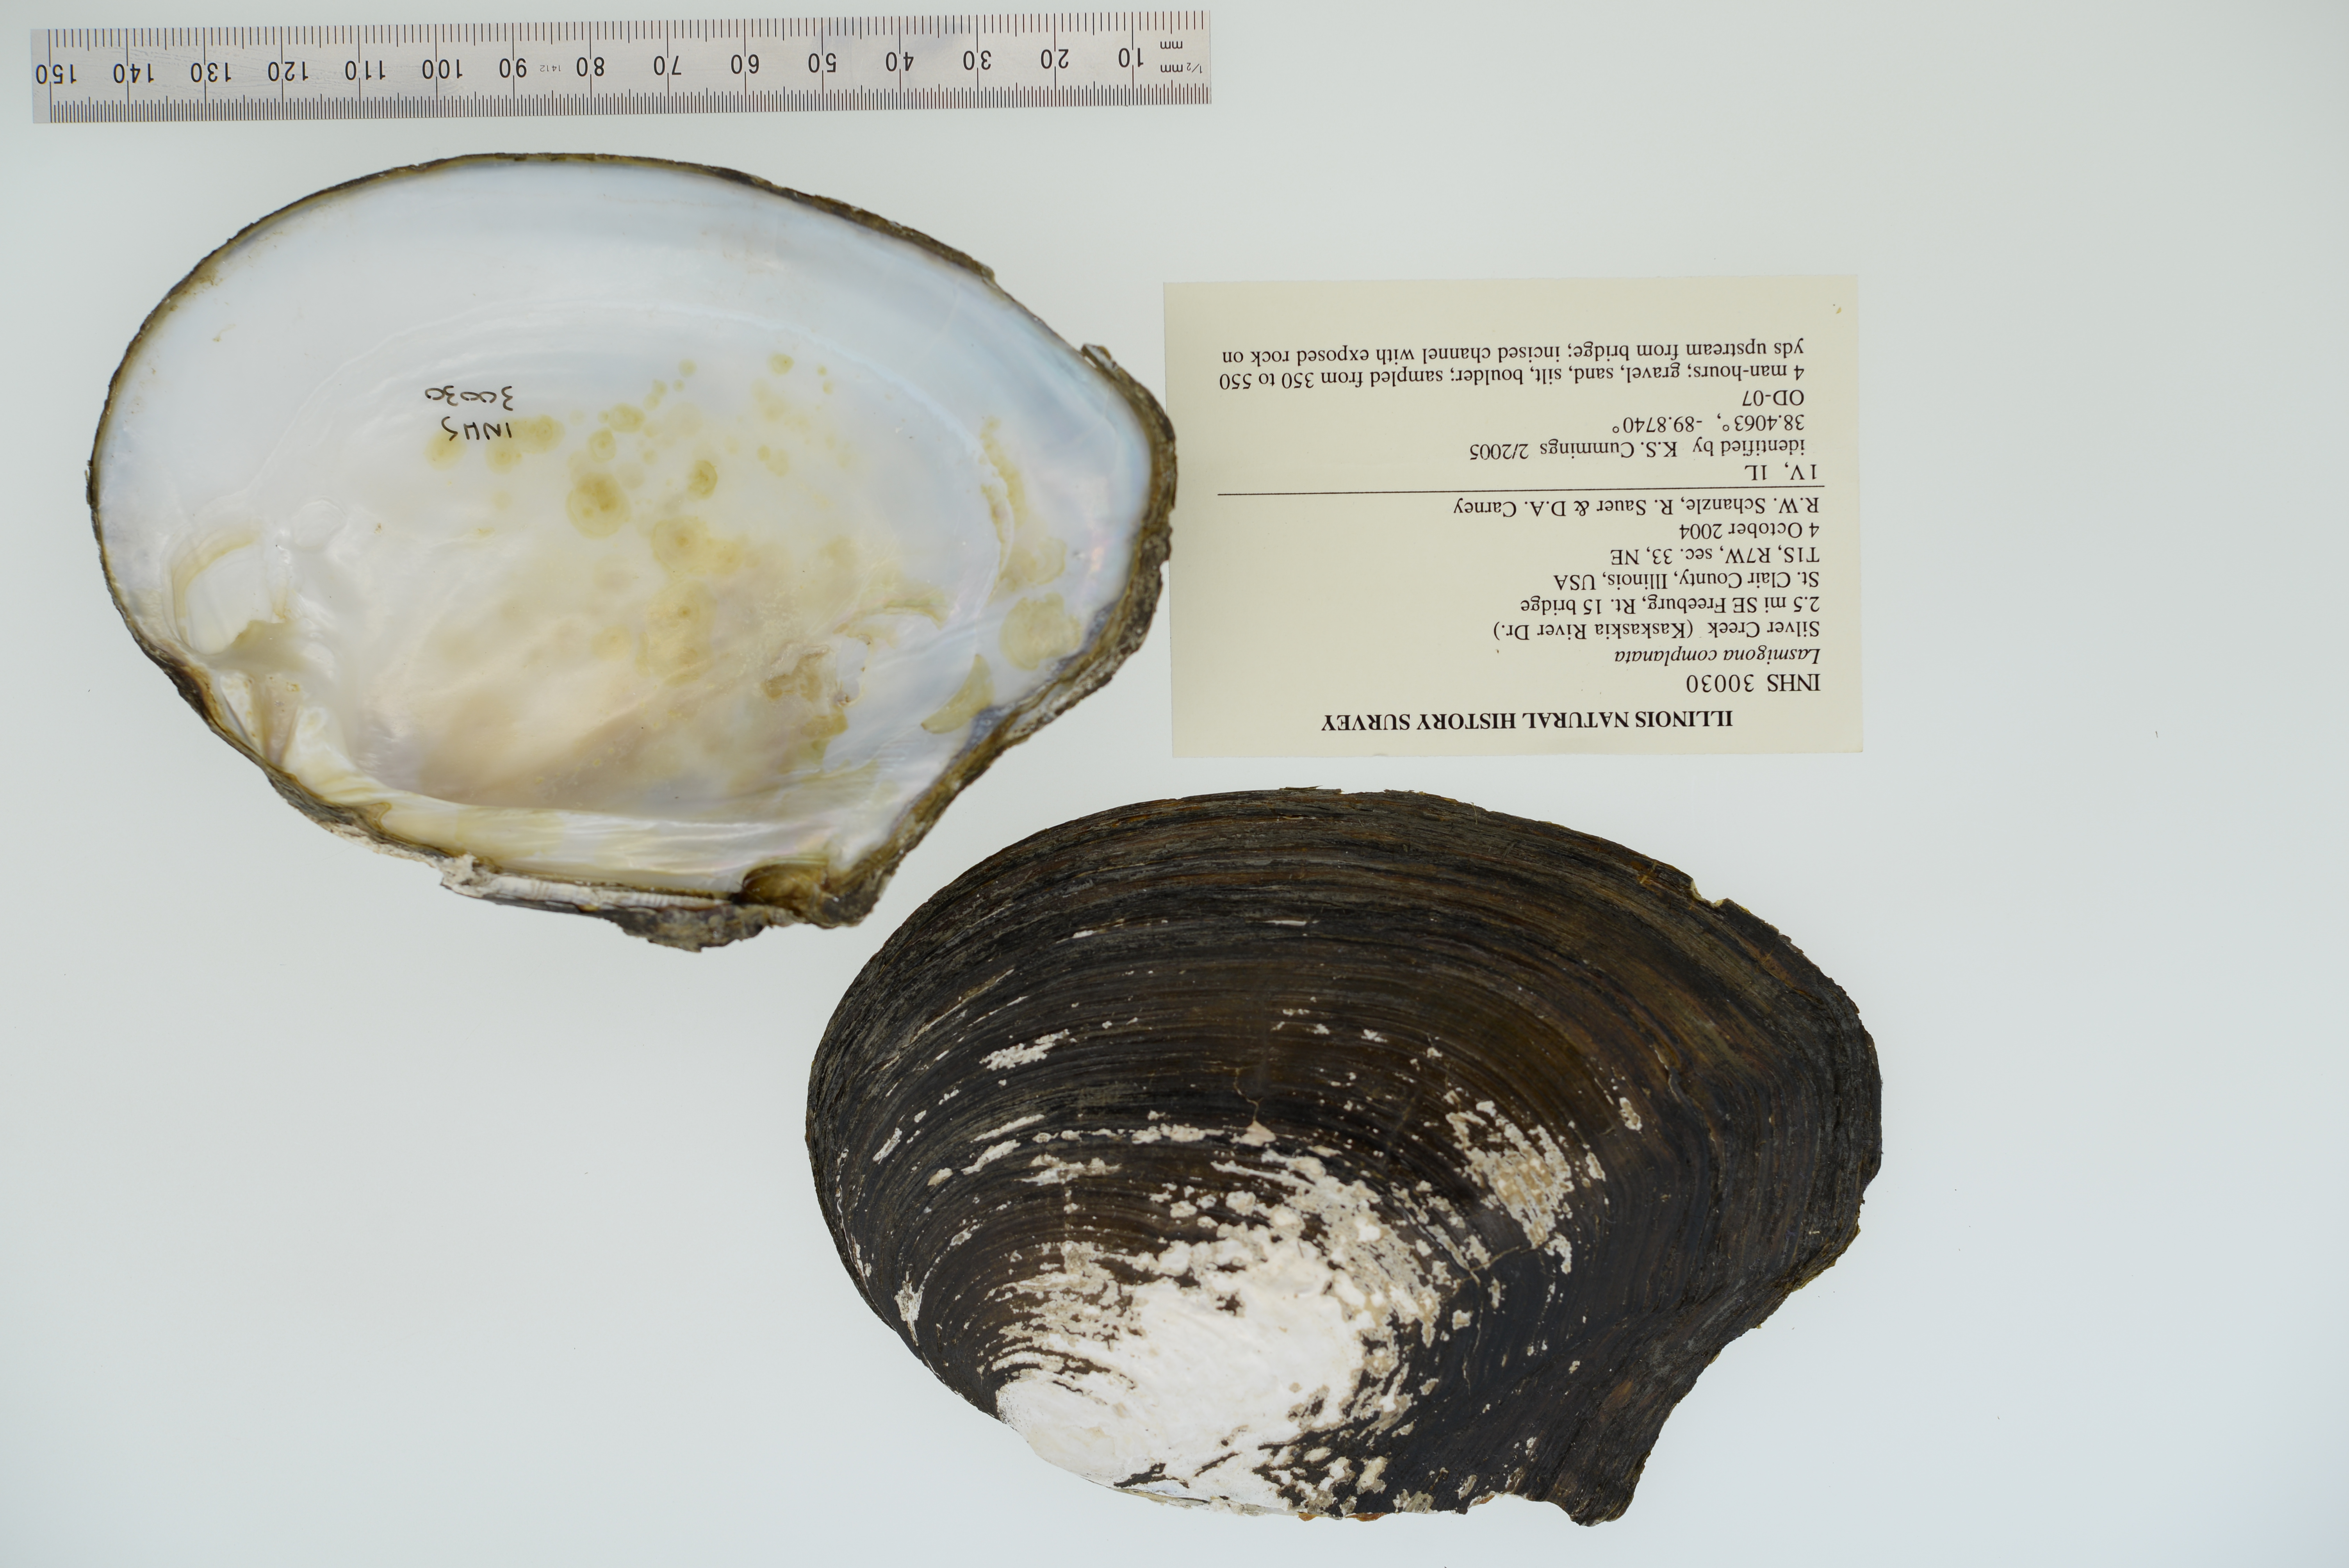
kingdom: Animalia
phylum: Mollusca
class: Bivalvia
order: Unionida
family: Unionidae
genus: Lasmigona
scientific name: Lasmigona complanata
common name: White heelsplitter
